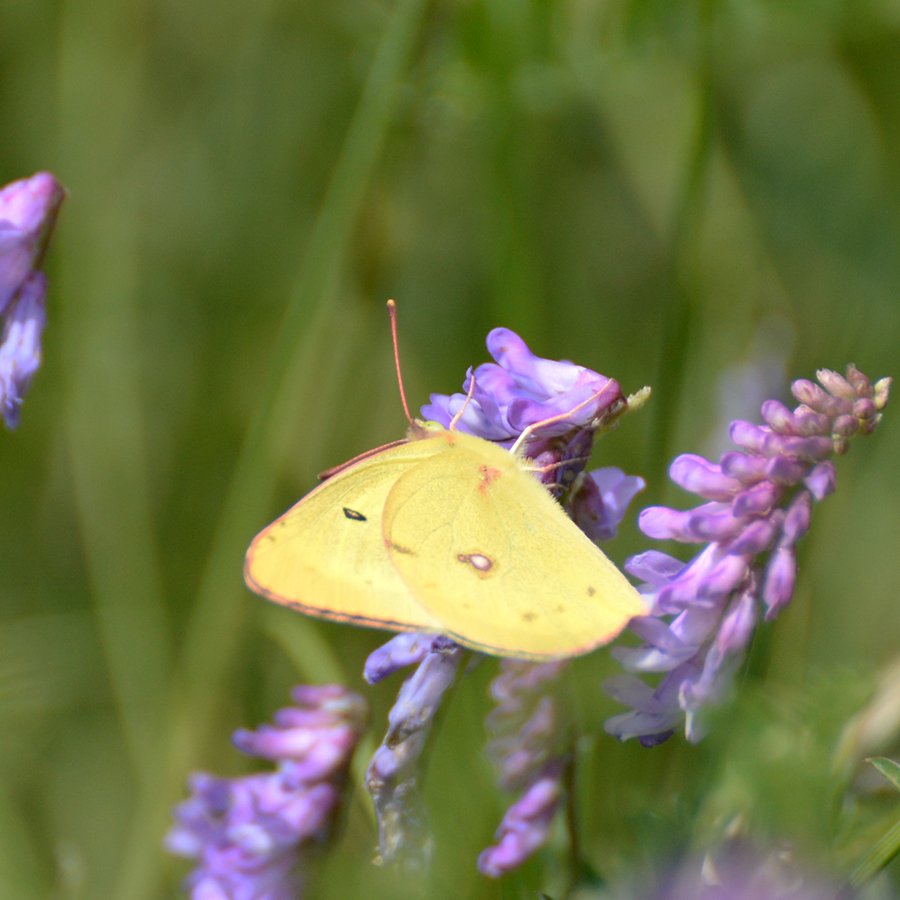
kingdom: Animalia
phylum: Arthropoda
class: Insecta
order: Lepidoptera
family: Pieridae
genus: Colias
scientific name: Colias philodice
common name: Clouded Sulphur
